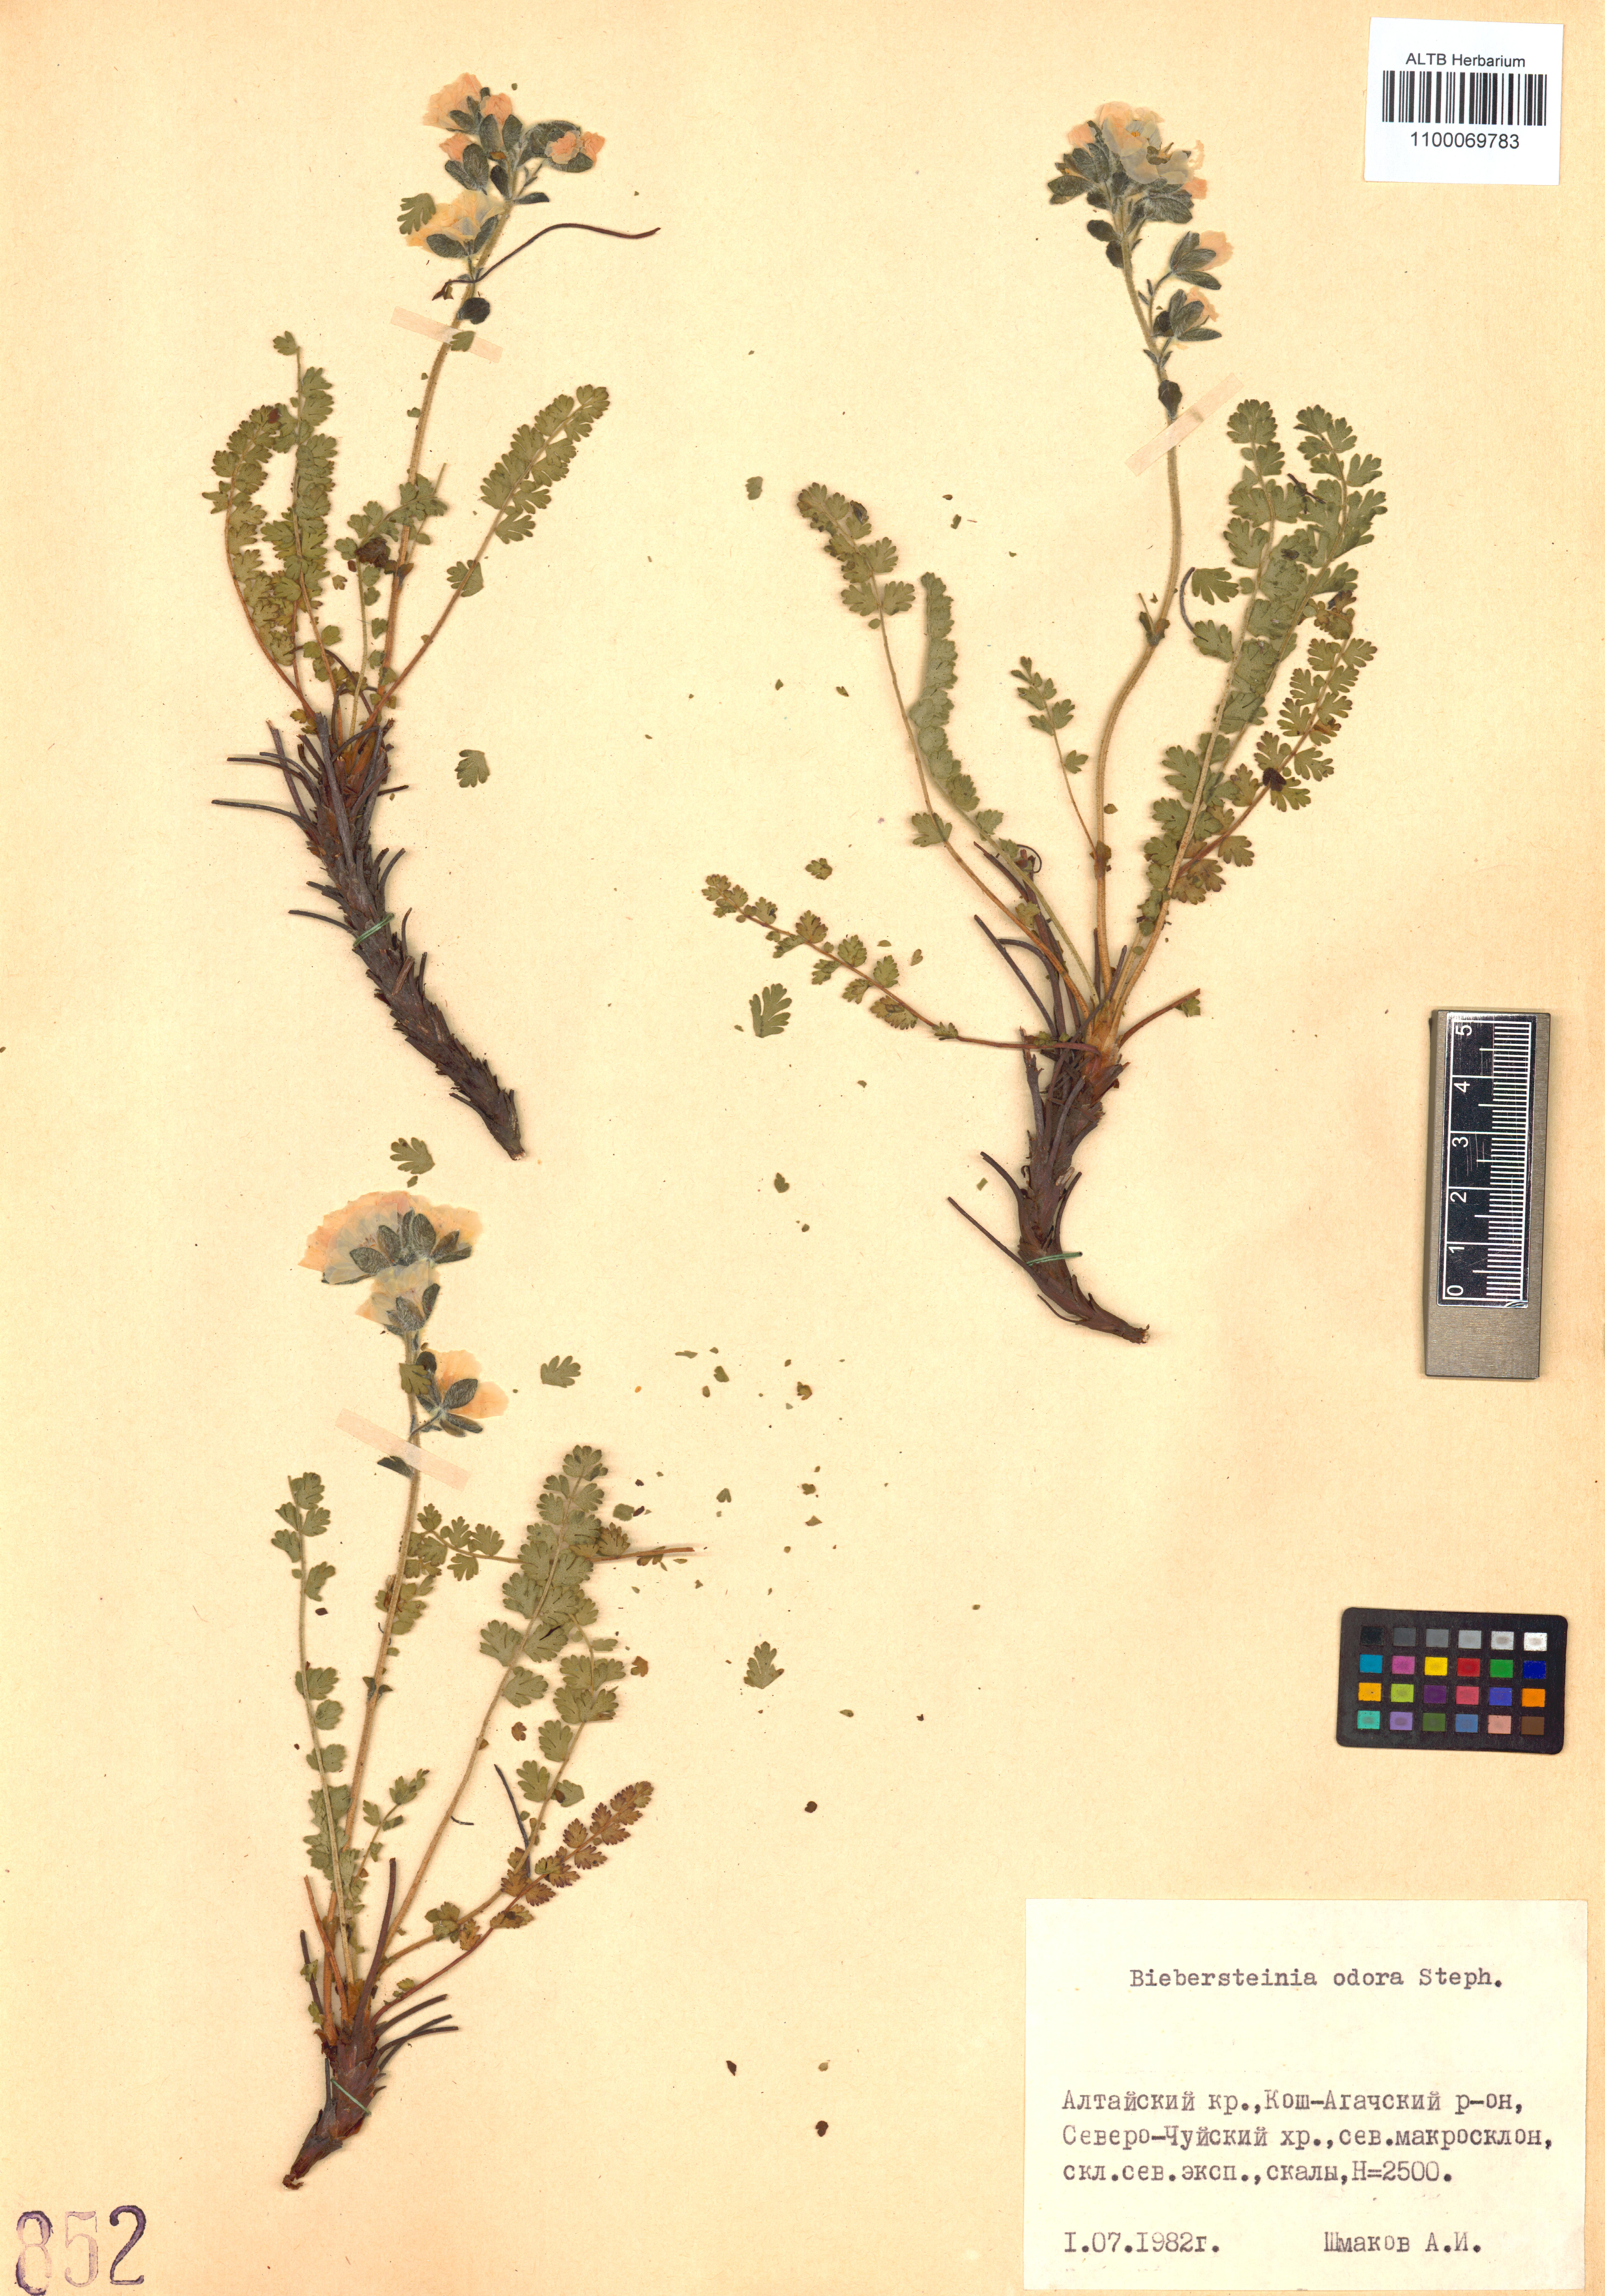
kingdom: Plantae
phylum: Tracheophyta
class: Magnoliopsida
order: Sapindales
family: Biebersteiniaceae
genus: Biebersteinia
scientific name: Biebersteinia odora
